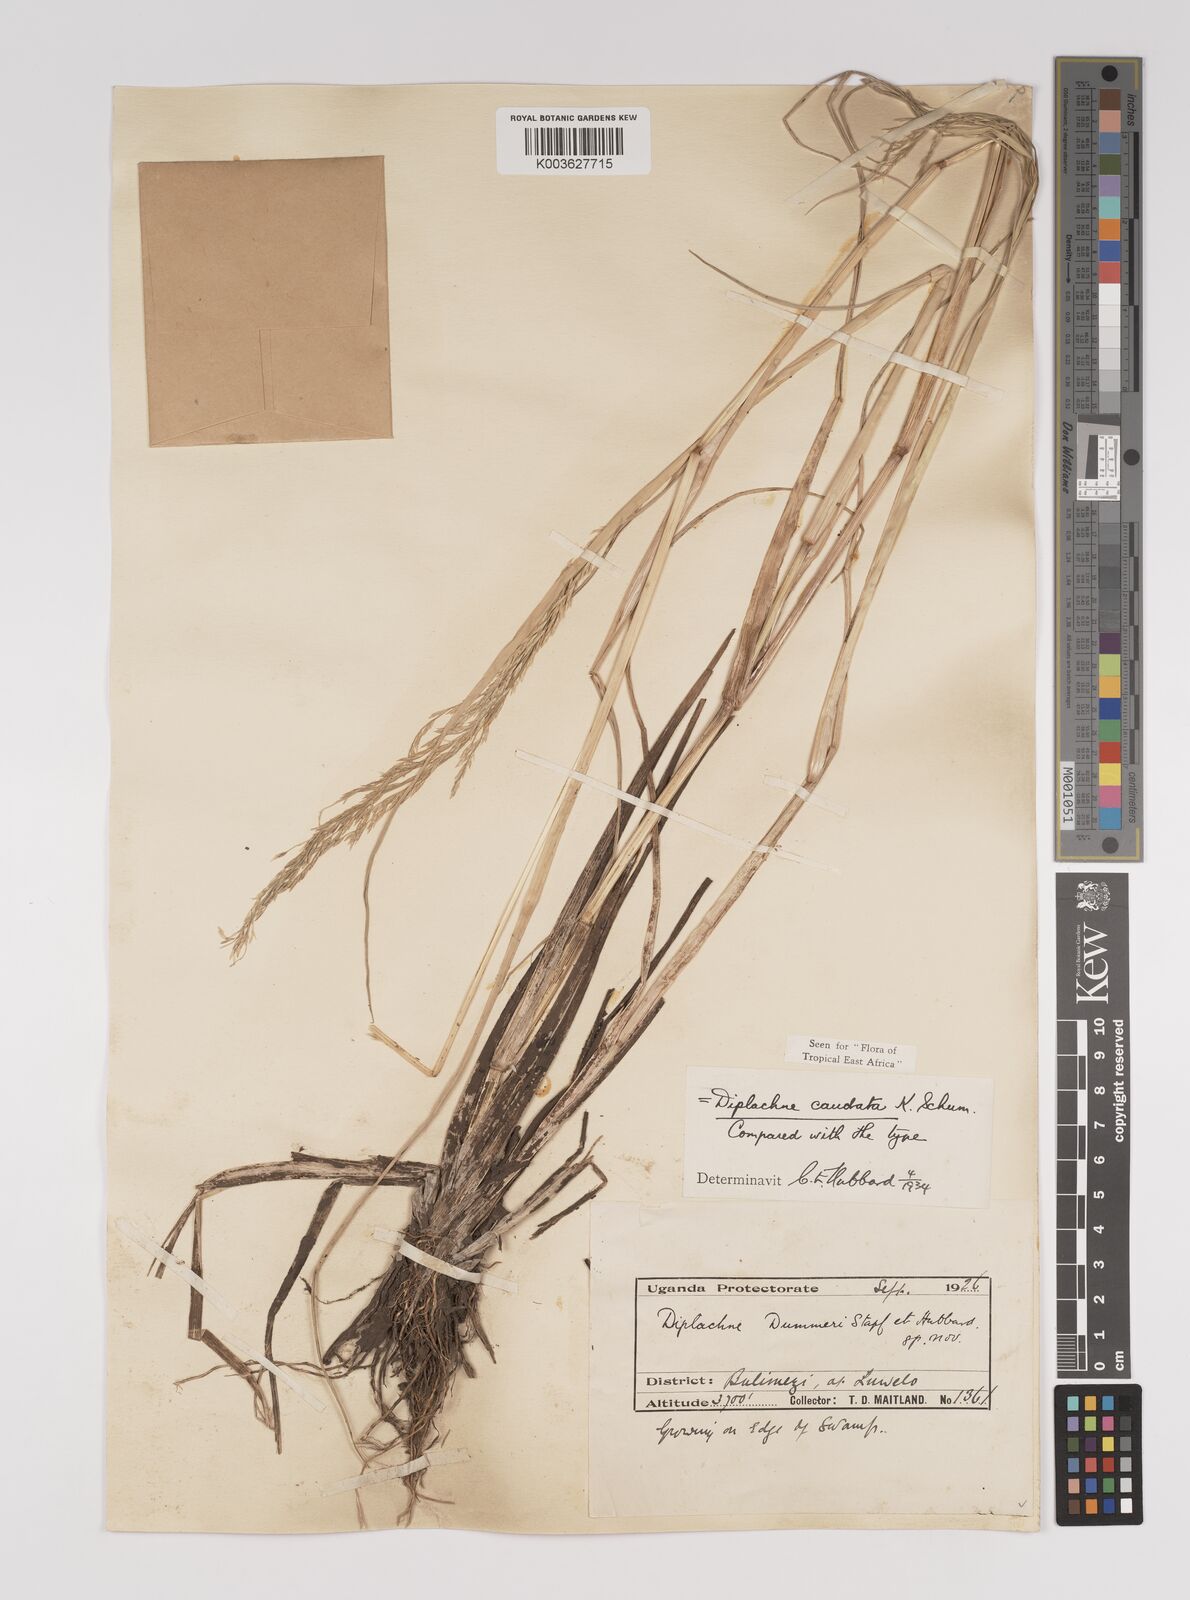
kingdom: Plantae
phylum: Tracheophyta
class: Liliopsida
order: Poales
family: Poaceae
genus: Leptochloa
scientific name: Leptochloa caudata
